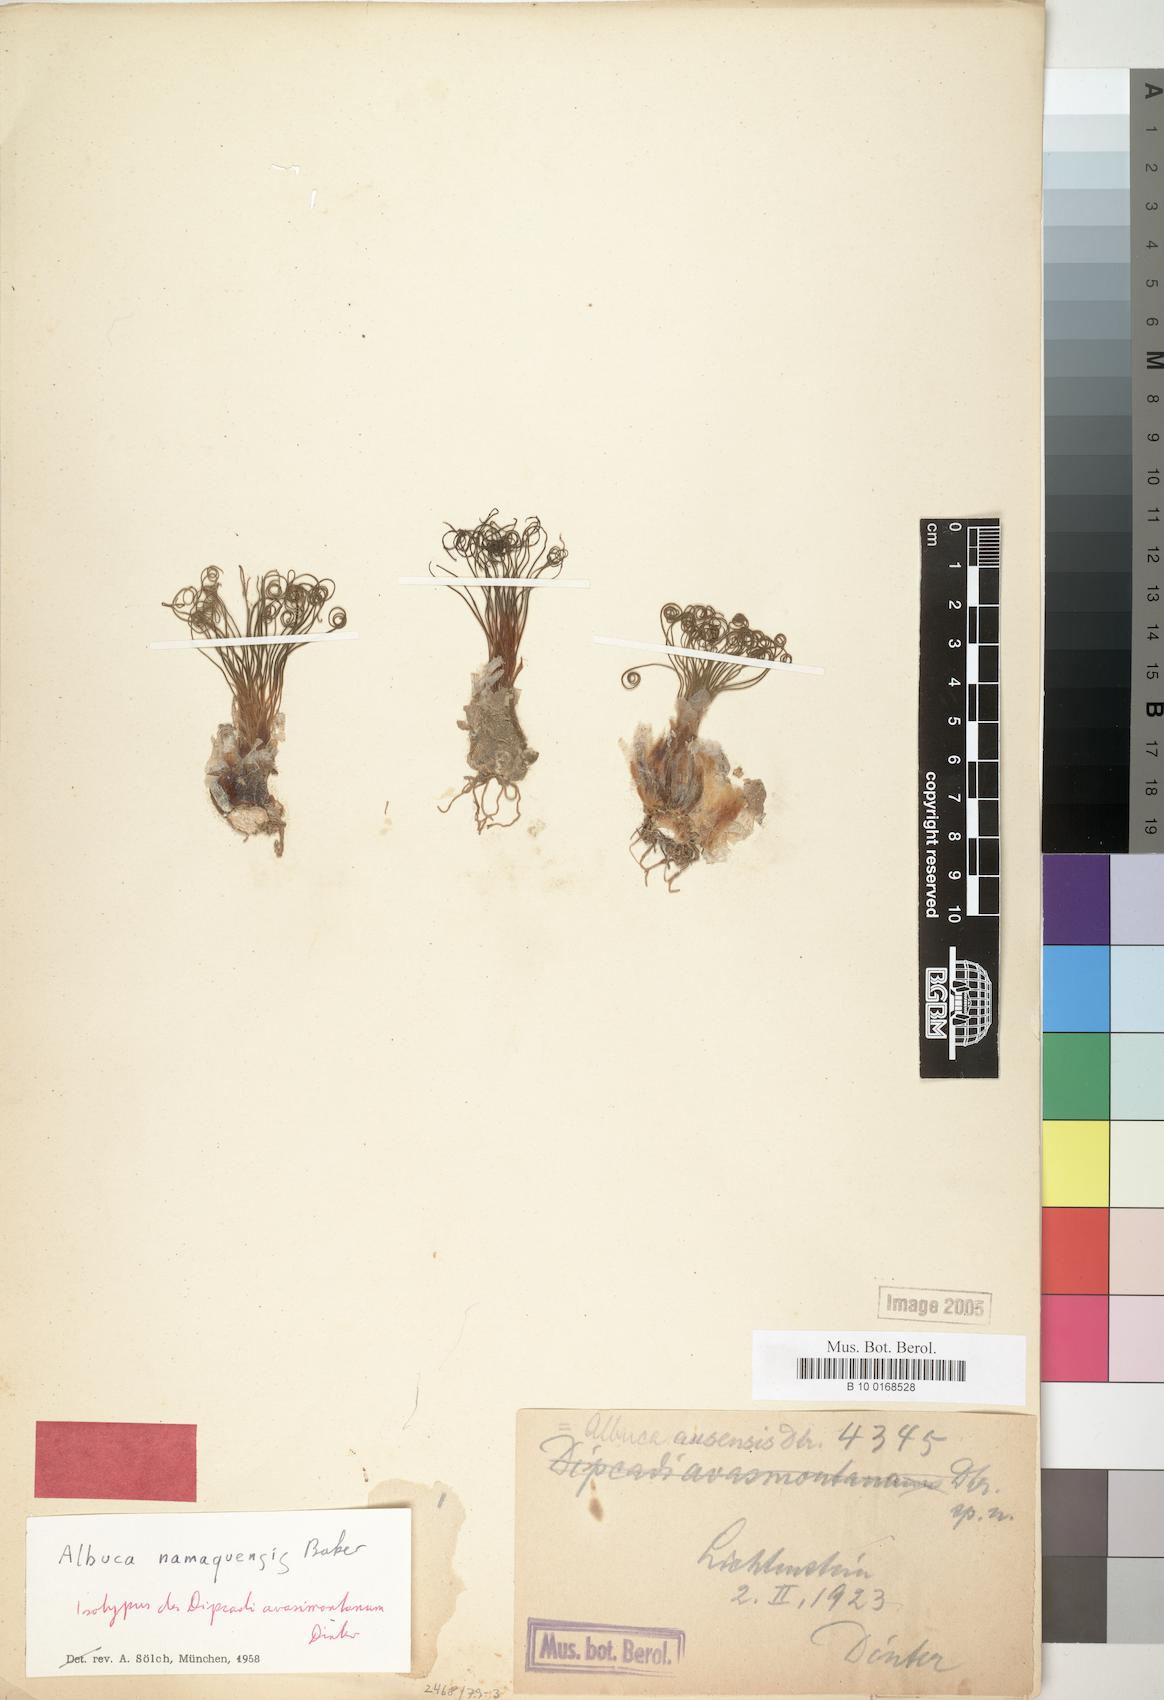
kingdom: Plantae
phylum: Tracheophyta
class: Liliopsida
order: Asparagales
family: Asparagaceae
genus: Albuca
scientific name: Albuca namaquensis
